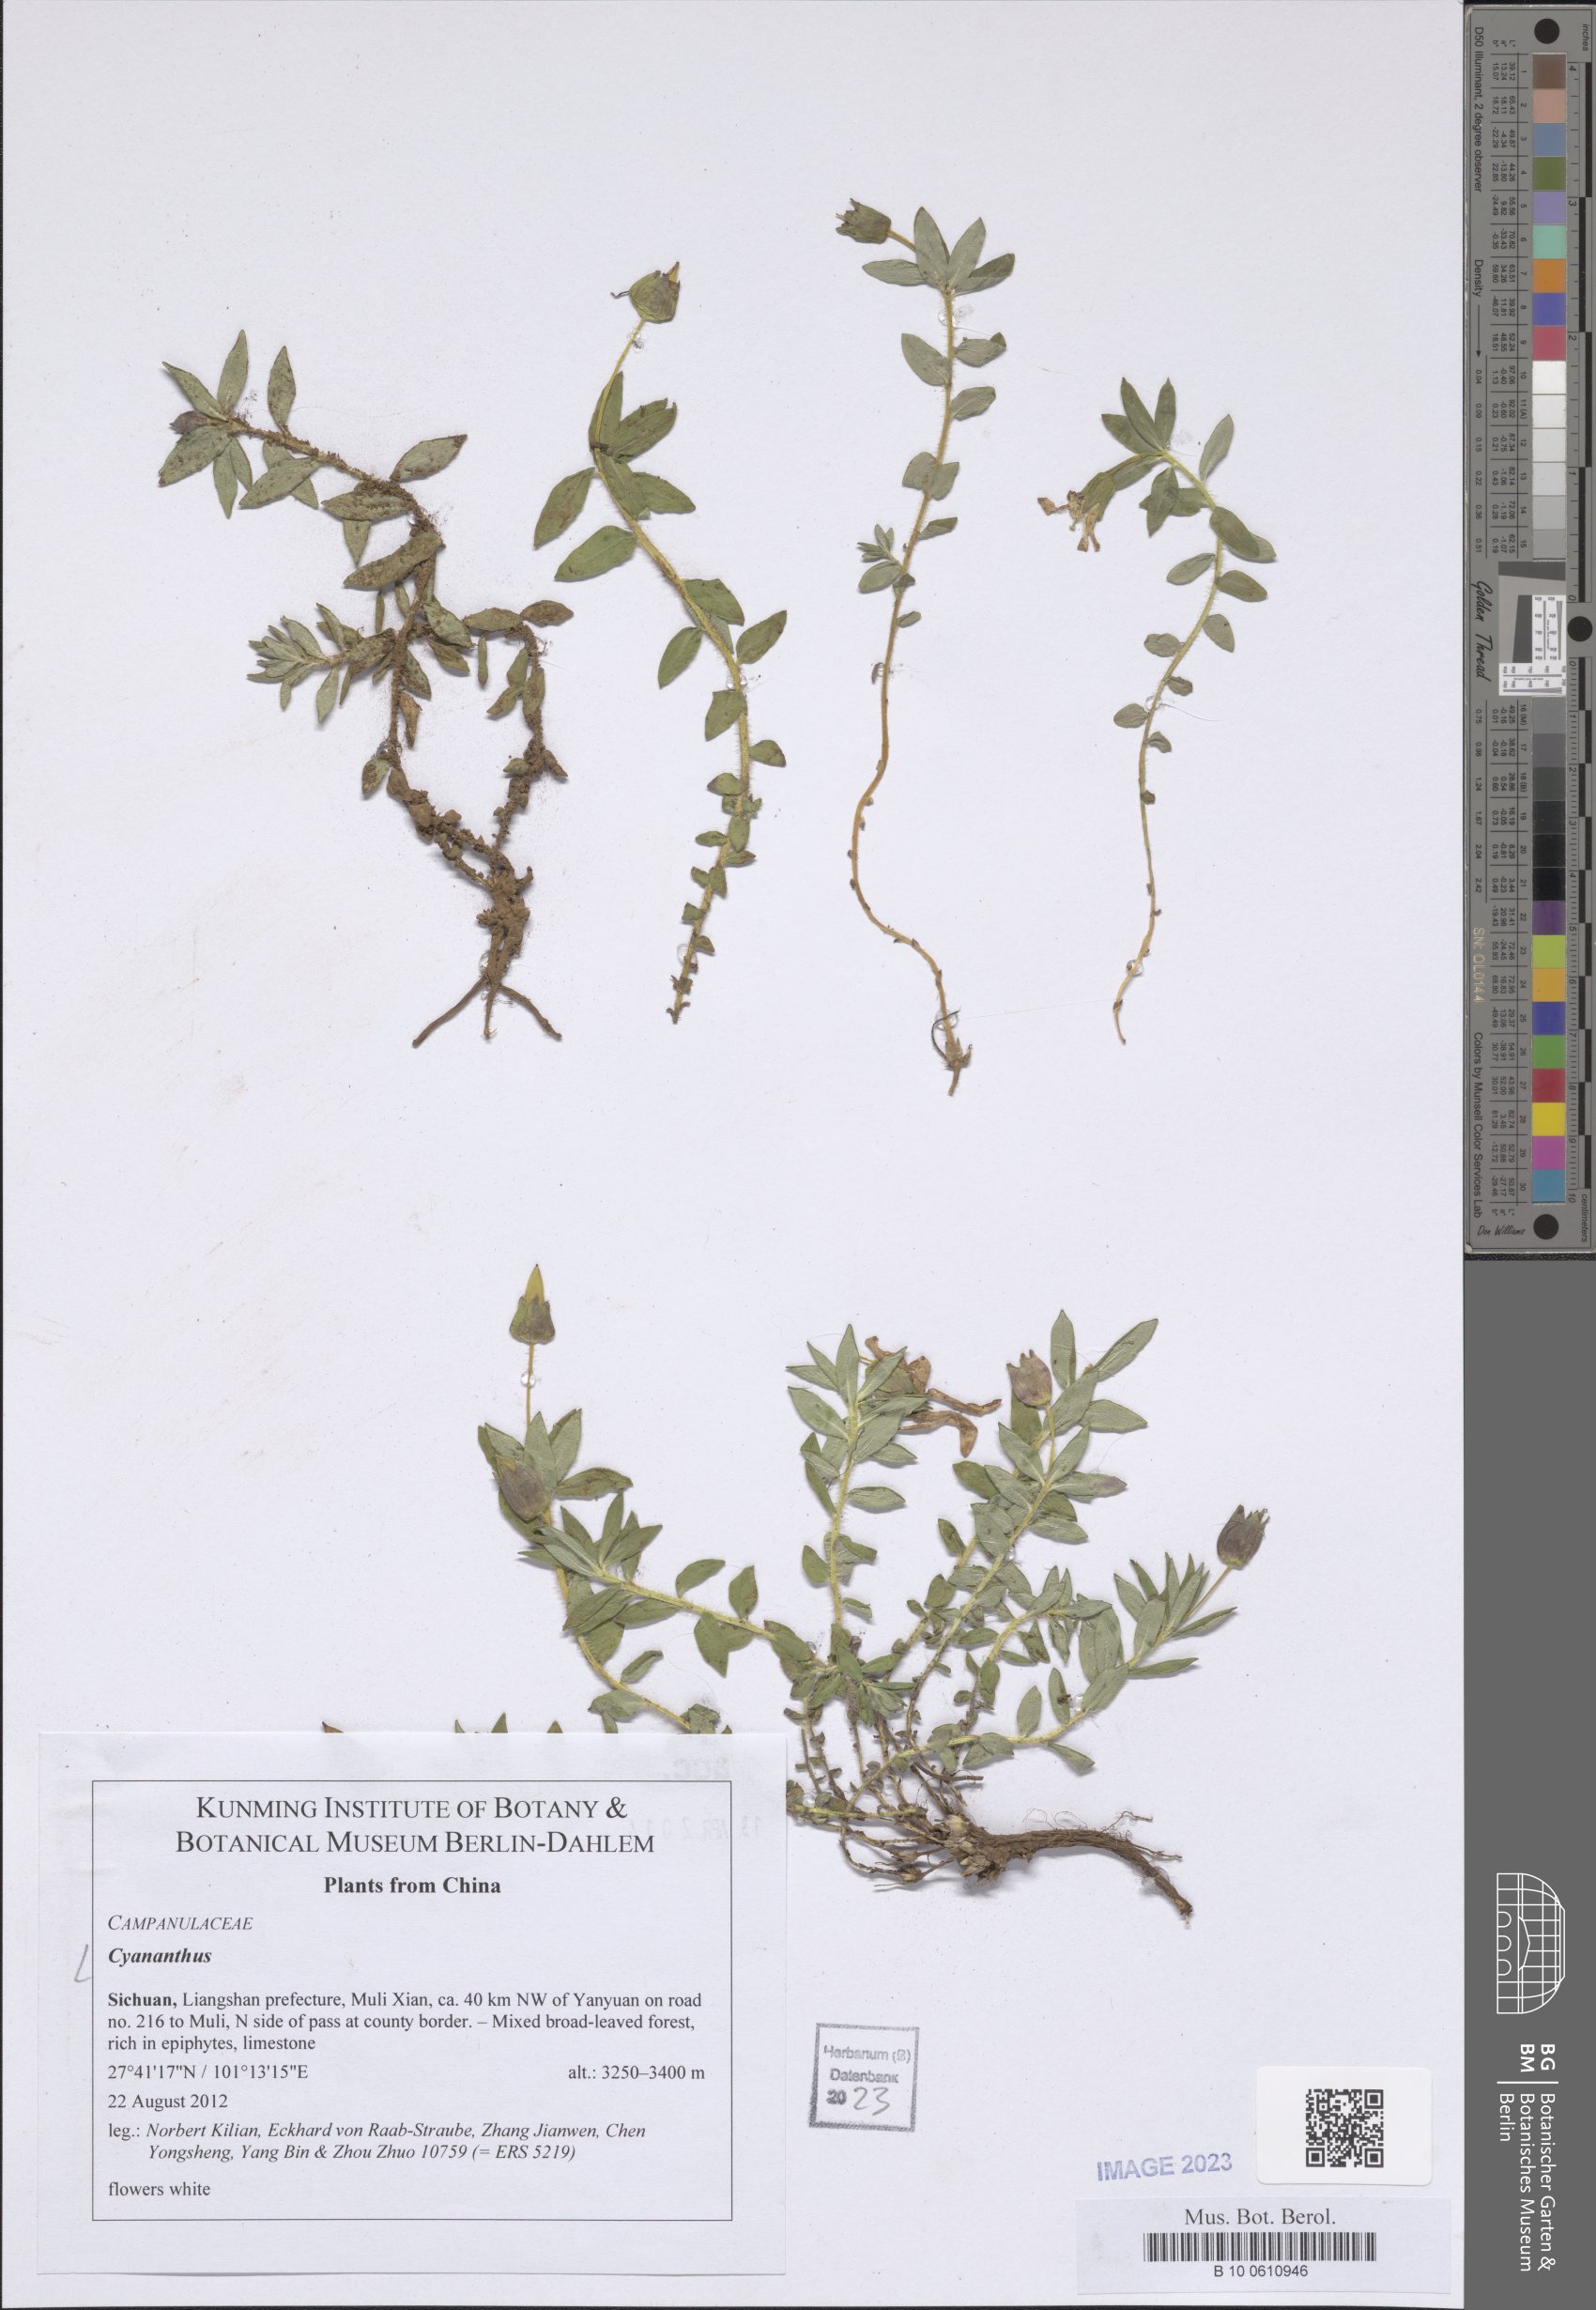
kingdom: Plantae
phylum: Tracheophyta
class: Magnoliopsida
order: Asterales
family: Campanulaceae
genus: Cyananthus
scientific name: Cyananthus
